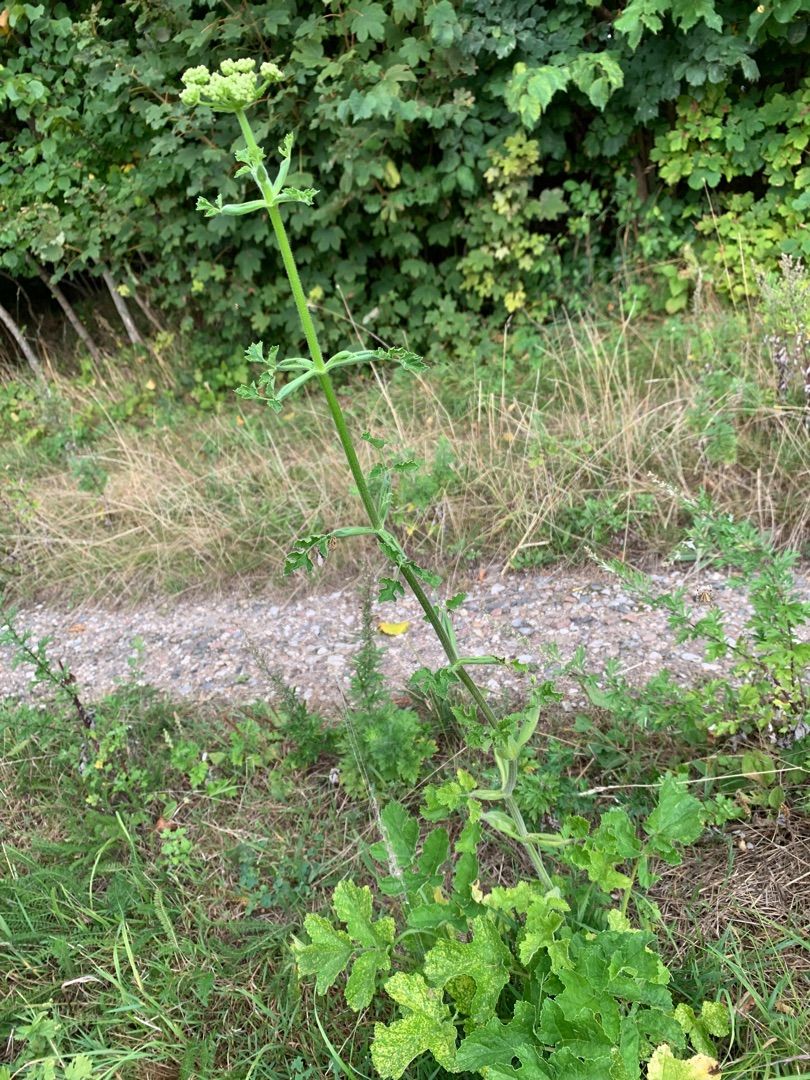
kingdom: Plantae
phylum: Tracheophyta
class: Magnoliopsida
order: Apiales
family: Apiaceae
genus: Heracleum
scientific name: Heracleum
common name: Bjørnekloslægten
